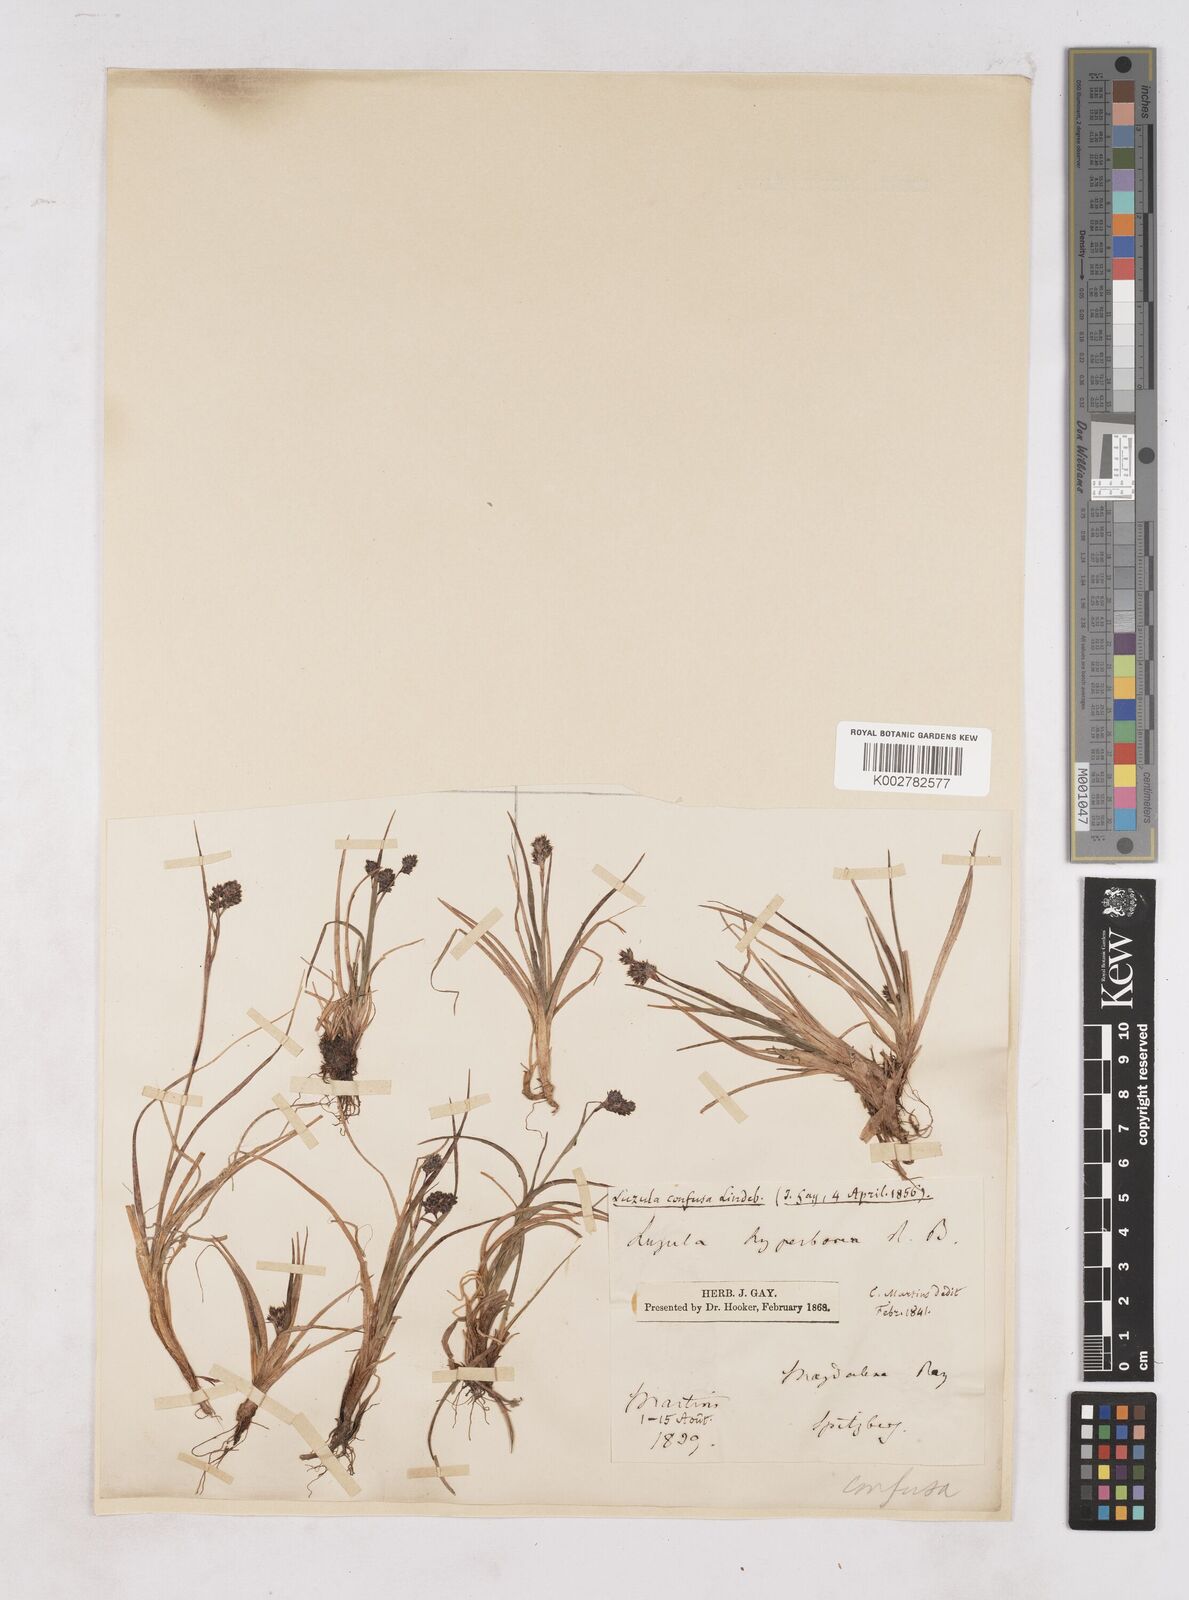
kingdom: Plantae
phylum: Tracheophyta
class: Liliopsida
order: Poales
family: Juncaceae
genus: Luzula
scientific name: Luzula confusa
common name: Northern wood rush
